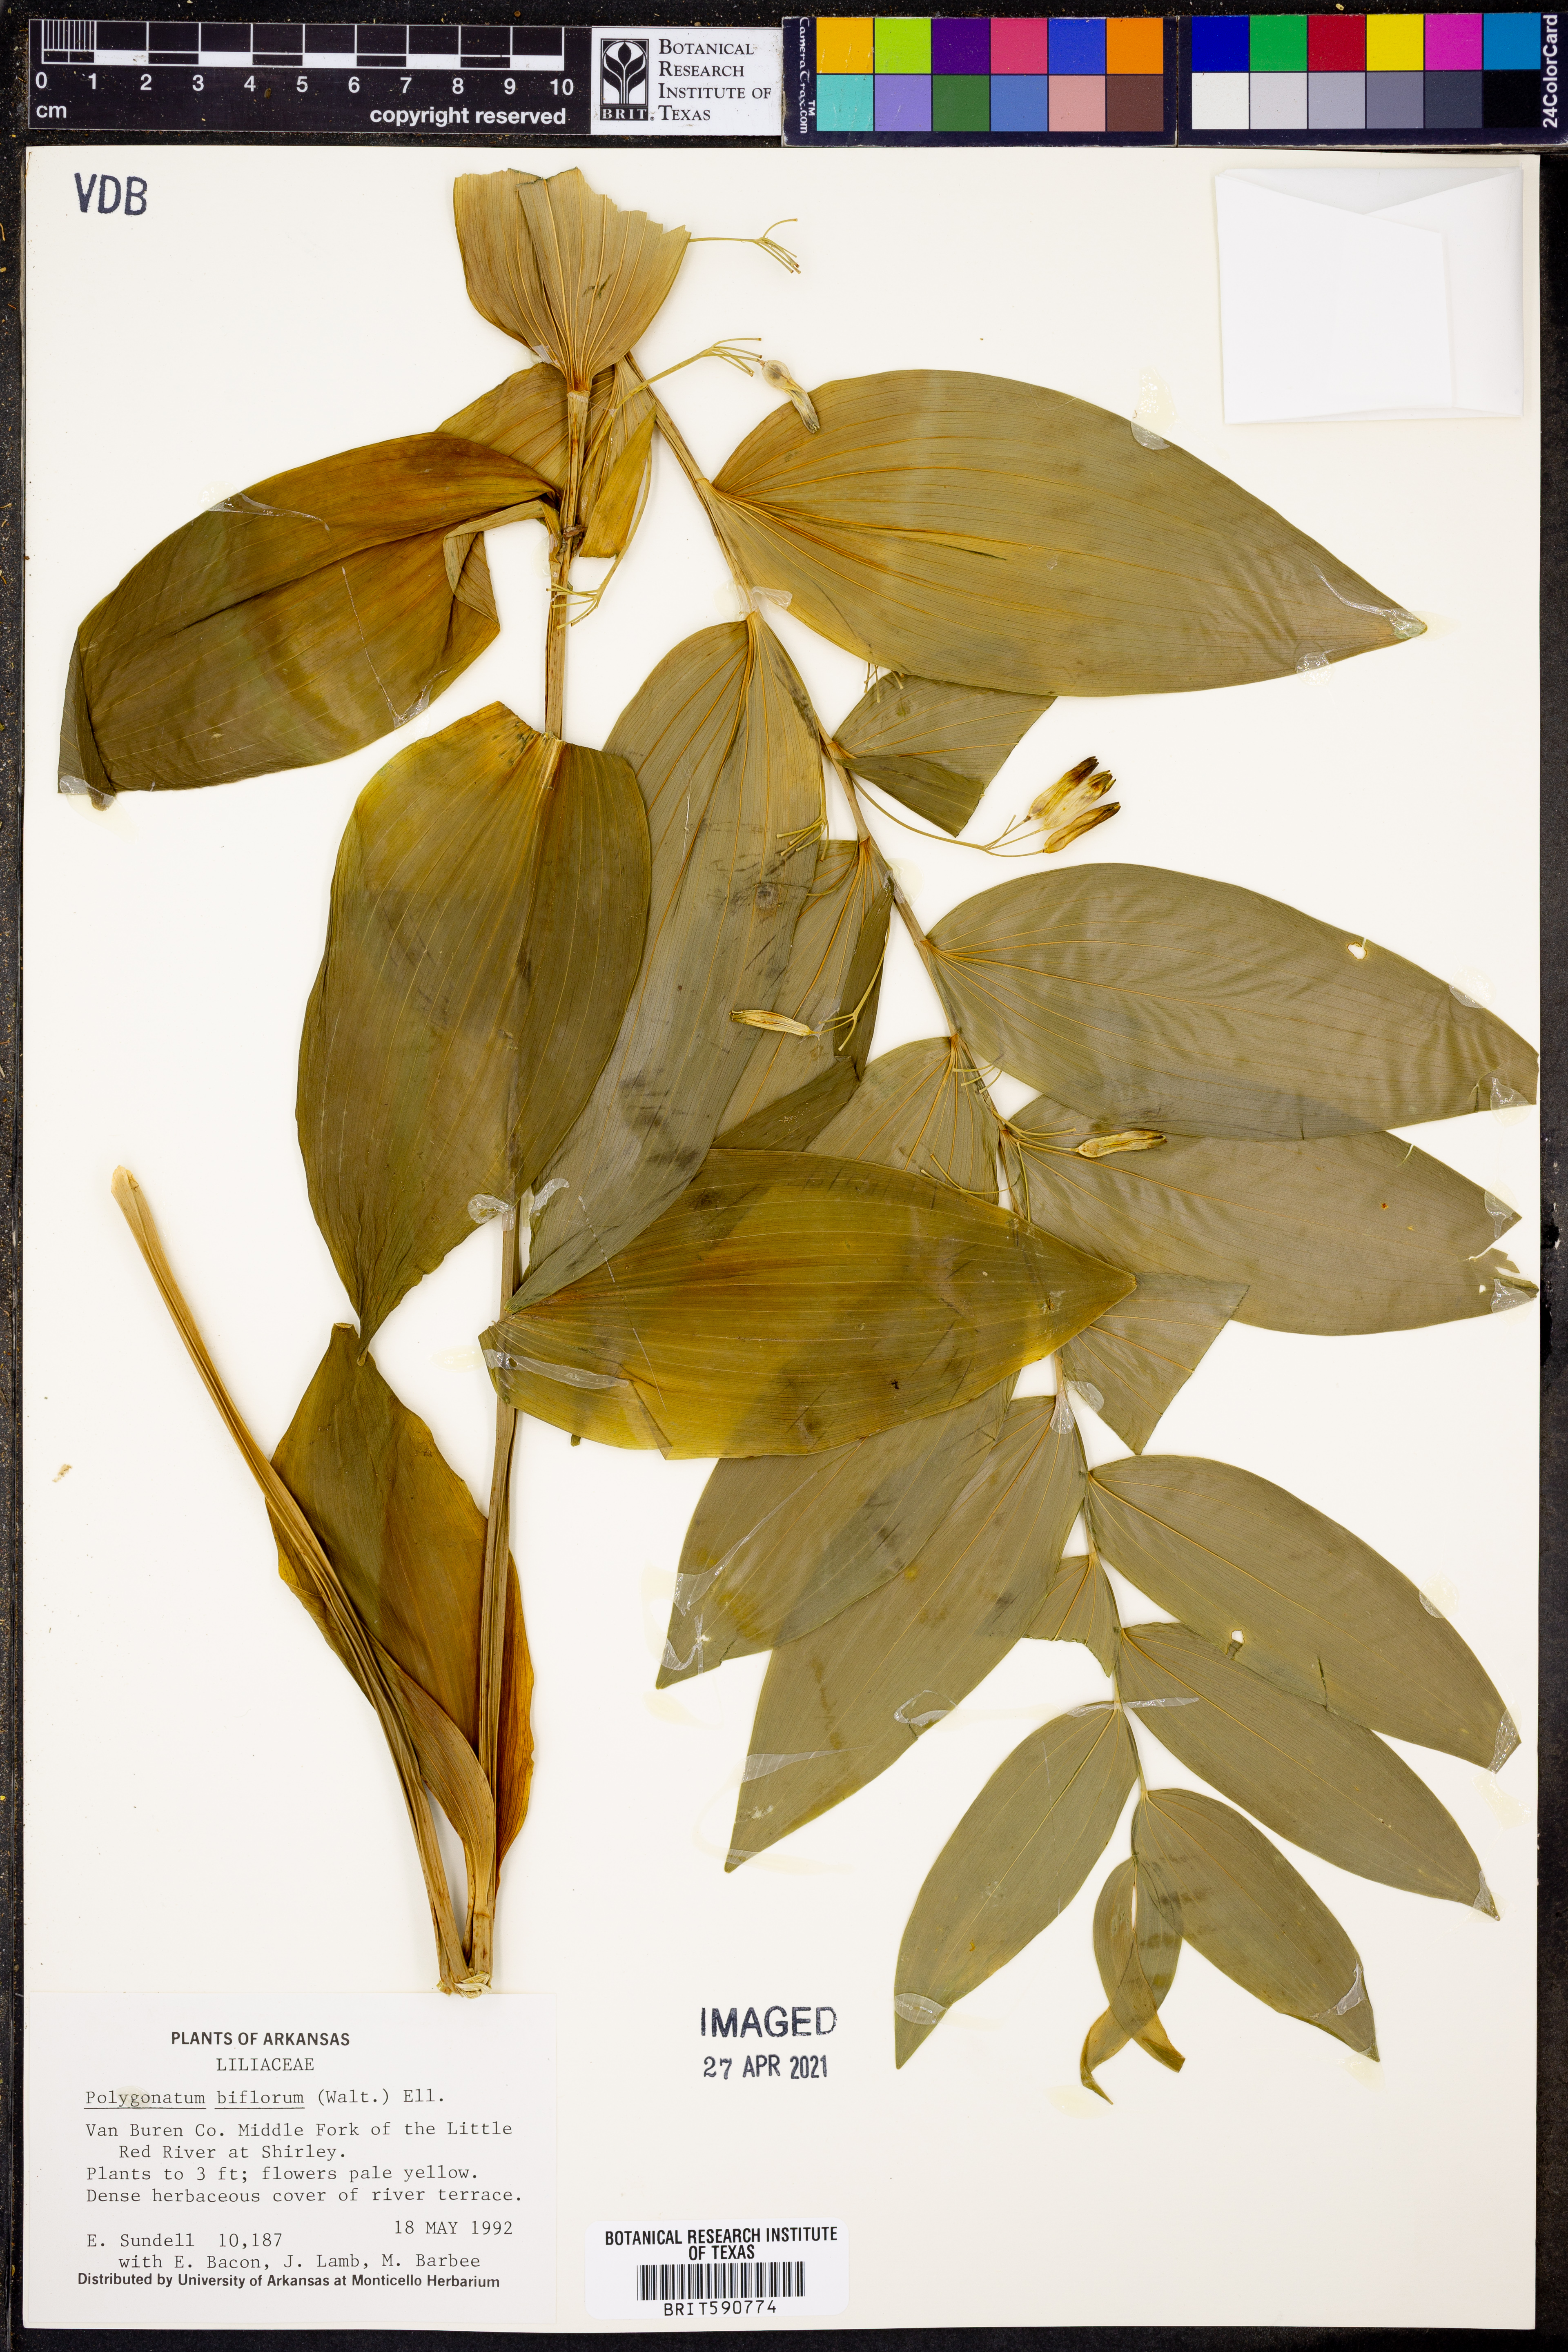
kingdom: Plantae
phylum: Tracheophyta
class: Liliopsida
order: Asparagales
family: Asparagaceae
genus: Polygonatum
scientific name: Polygonatum biflorum
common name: American solomon's-seal
